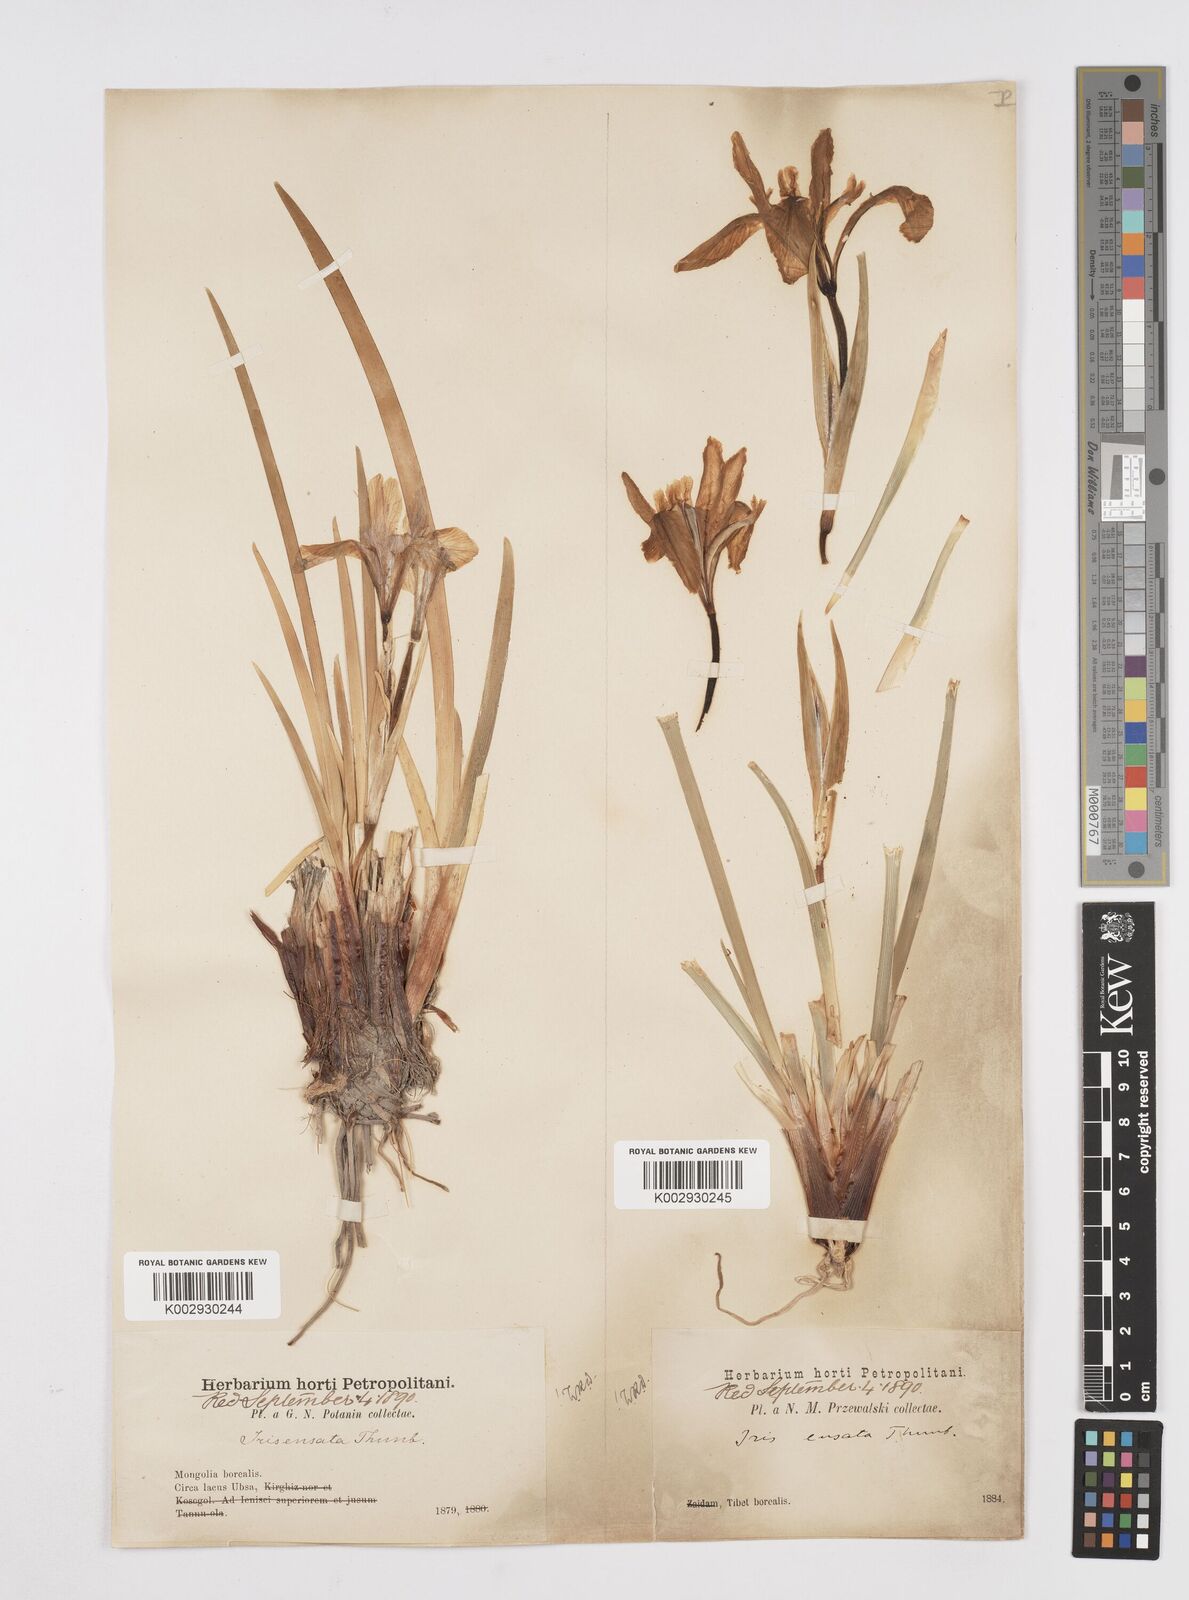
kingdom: Plantae
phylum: Tracheophyta
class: Liliopsida
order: Asparagales
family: Iridaceae
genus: Iris
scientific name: Iris lactea
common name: White-flower chinese iris
